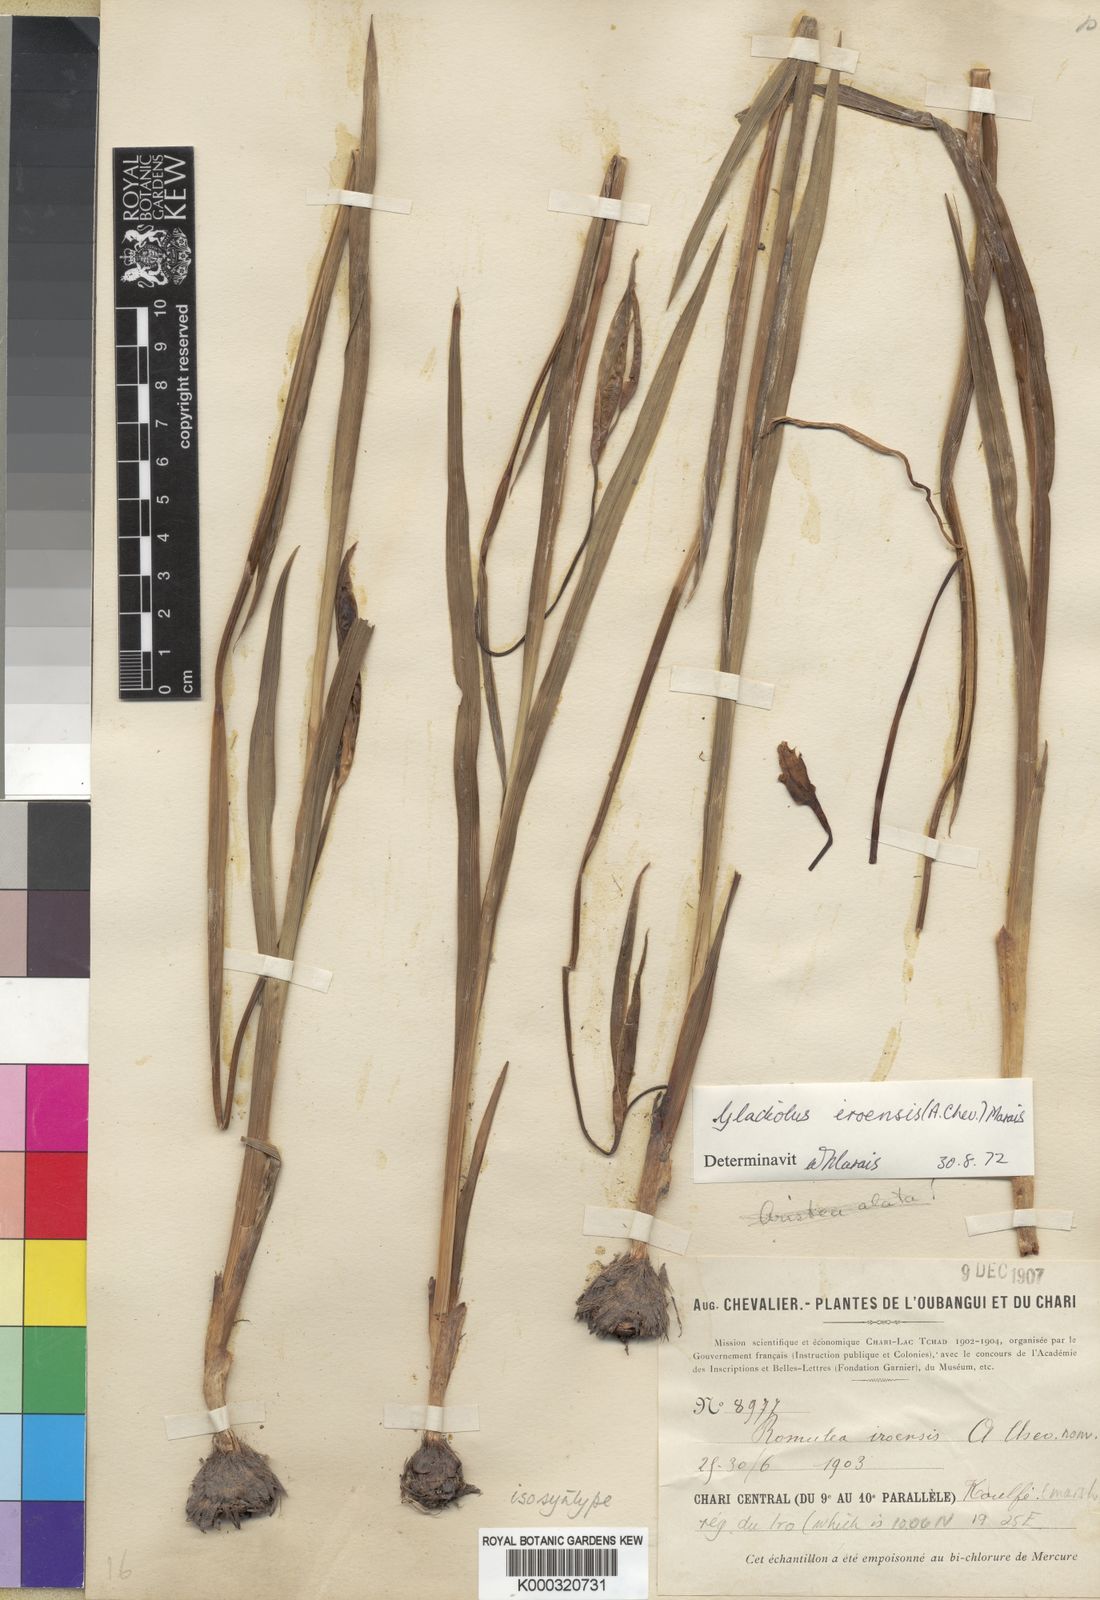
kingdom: Plantae
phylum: Tracheophyta
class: Liliopsida
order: Asparagales
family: Iridaceae
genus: Gladiolus
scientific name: Gladiolus iroensis
